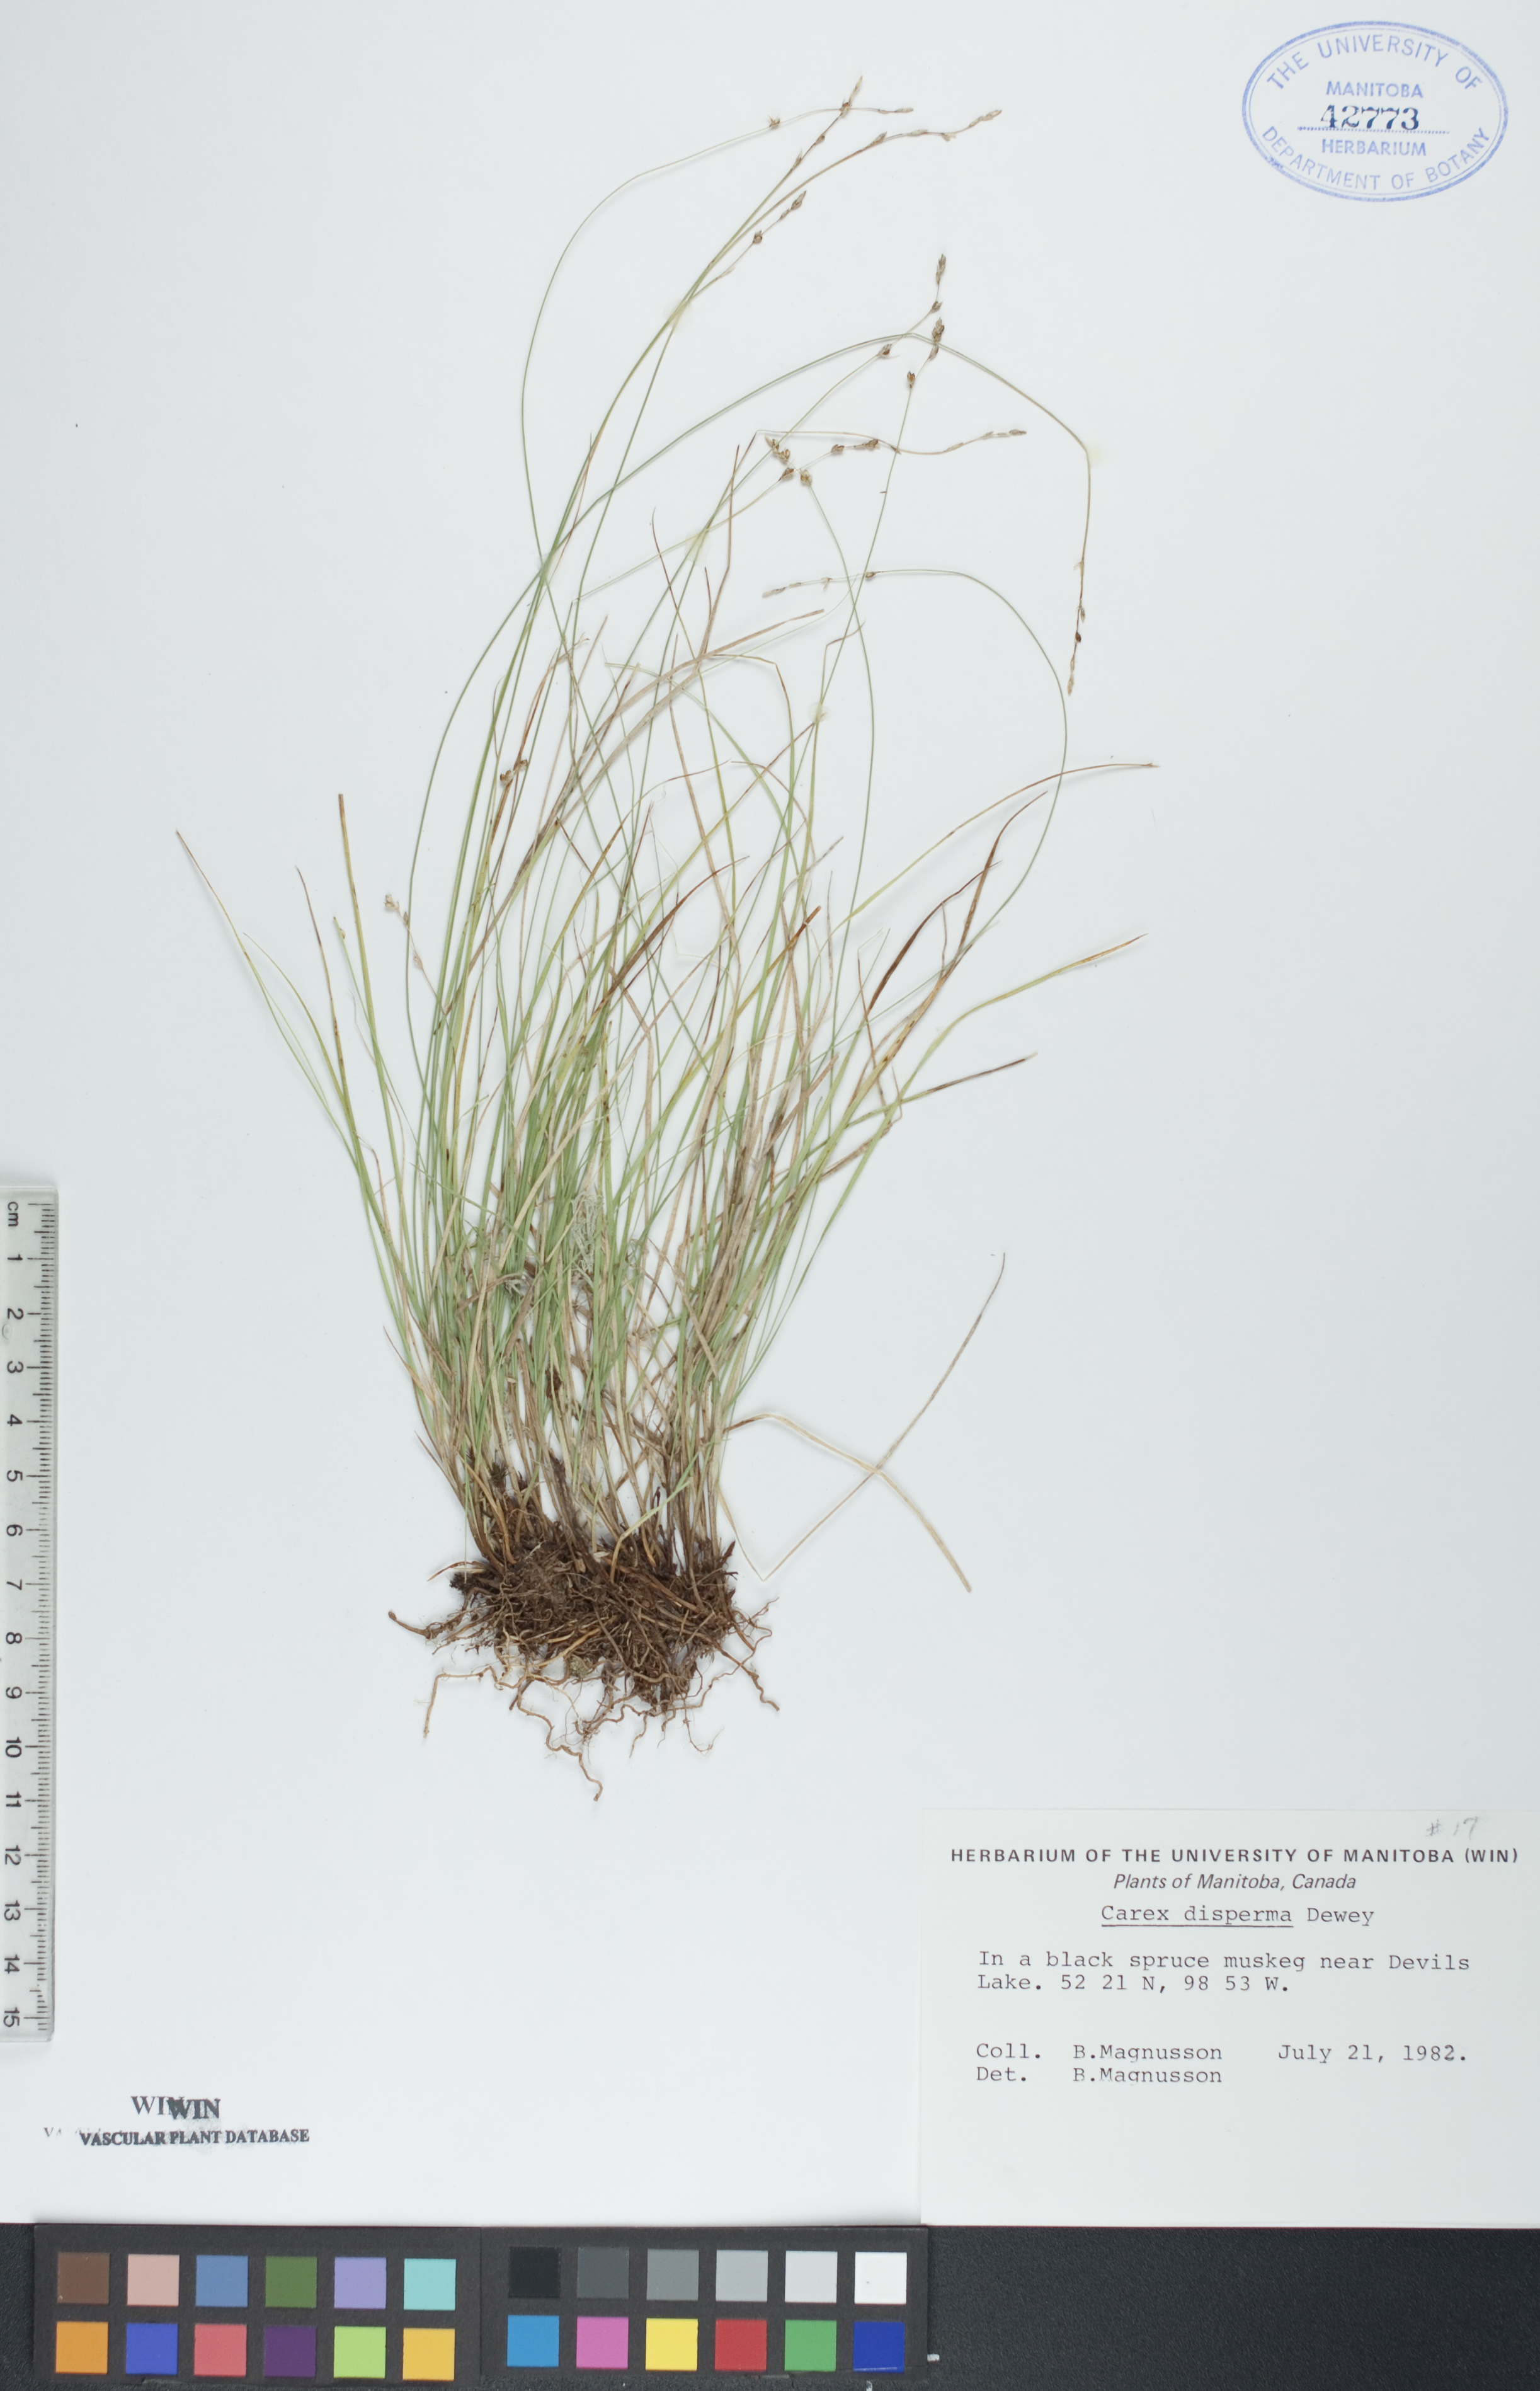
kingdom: Plantae
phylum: Tracheophyta
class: Liliopsida
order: Poales
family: Cyperaceae
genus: Carex
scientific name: Carex disperma
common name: Short-leaved sedge
